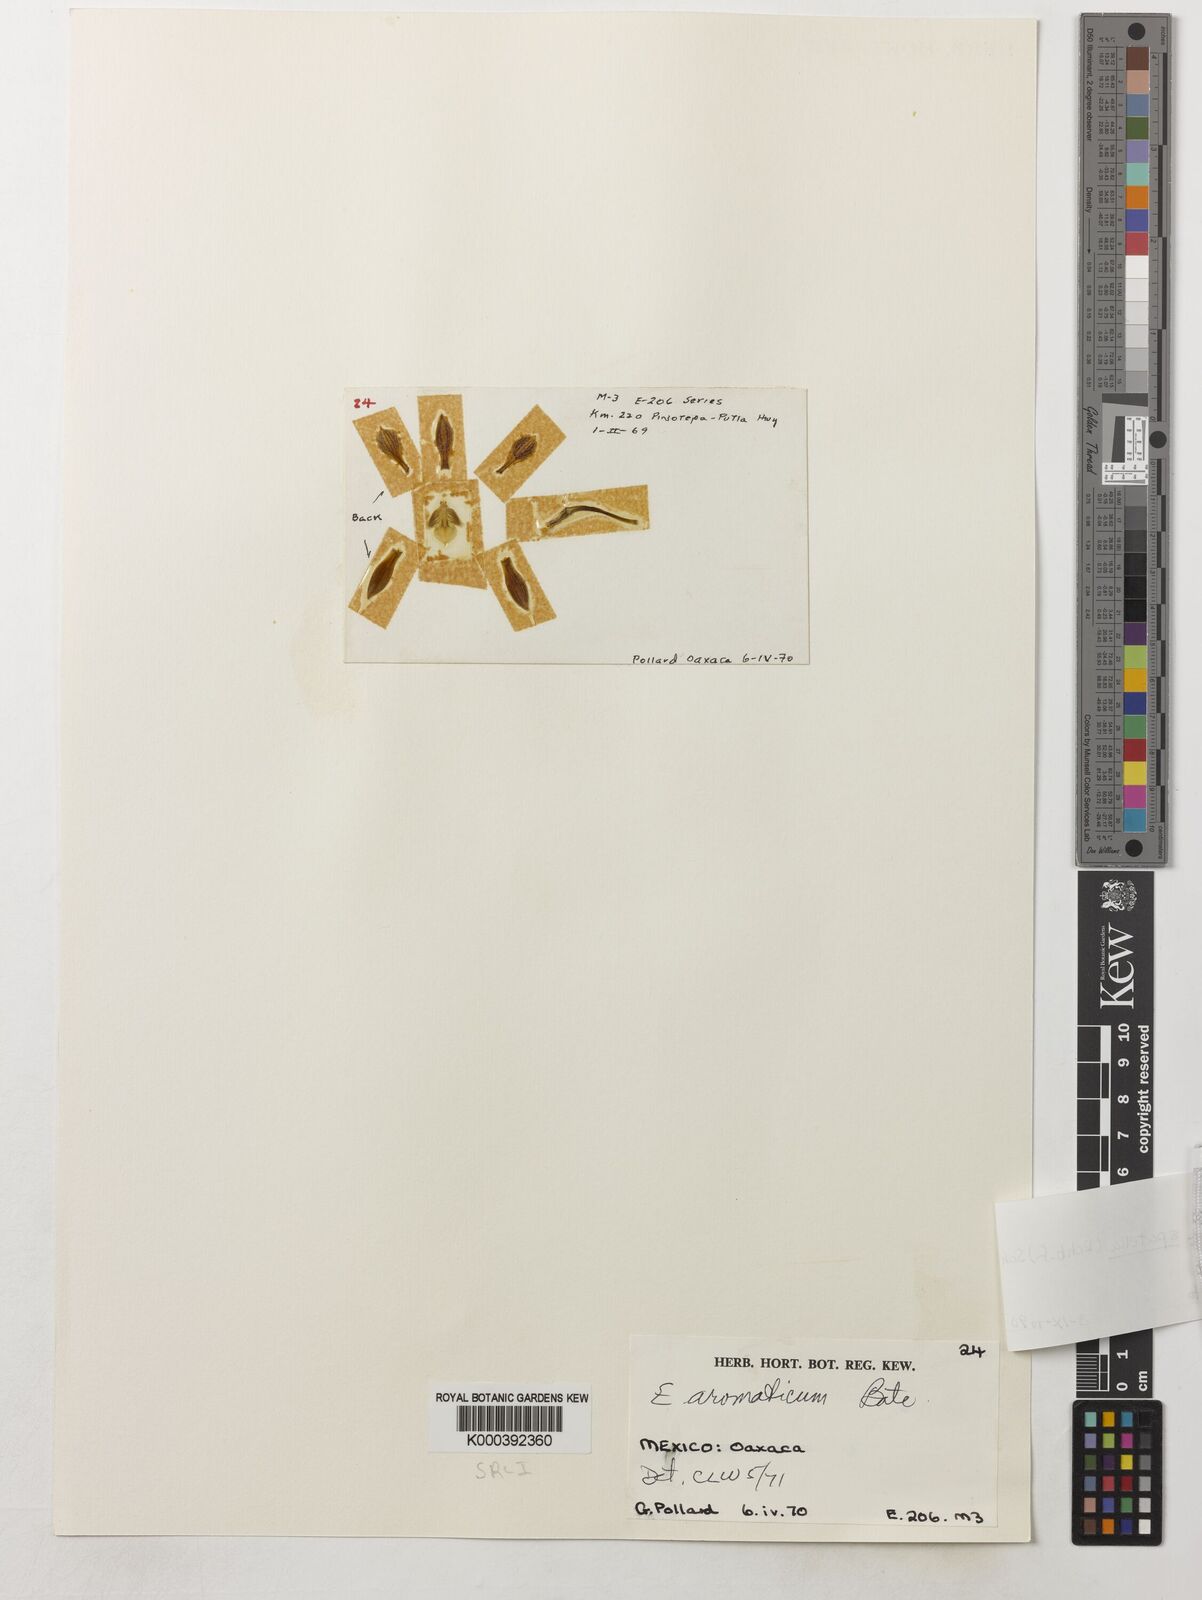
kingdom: Plantae
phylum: Tracheophyta
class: Liliopsida
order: Asparagales
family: Orchidaceae
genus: Encyclia
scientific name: Encyclia spatella
